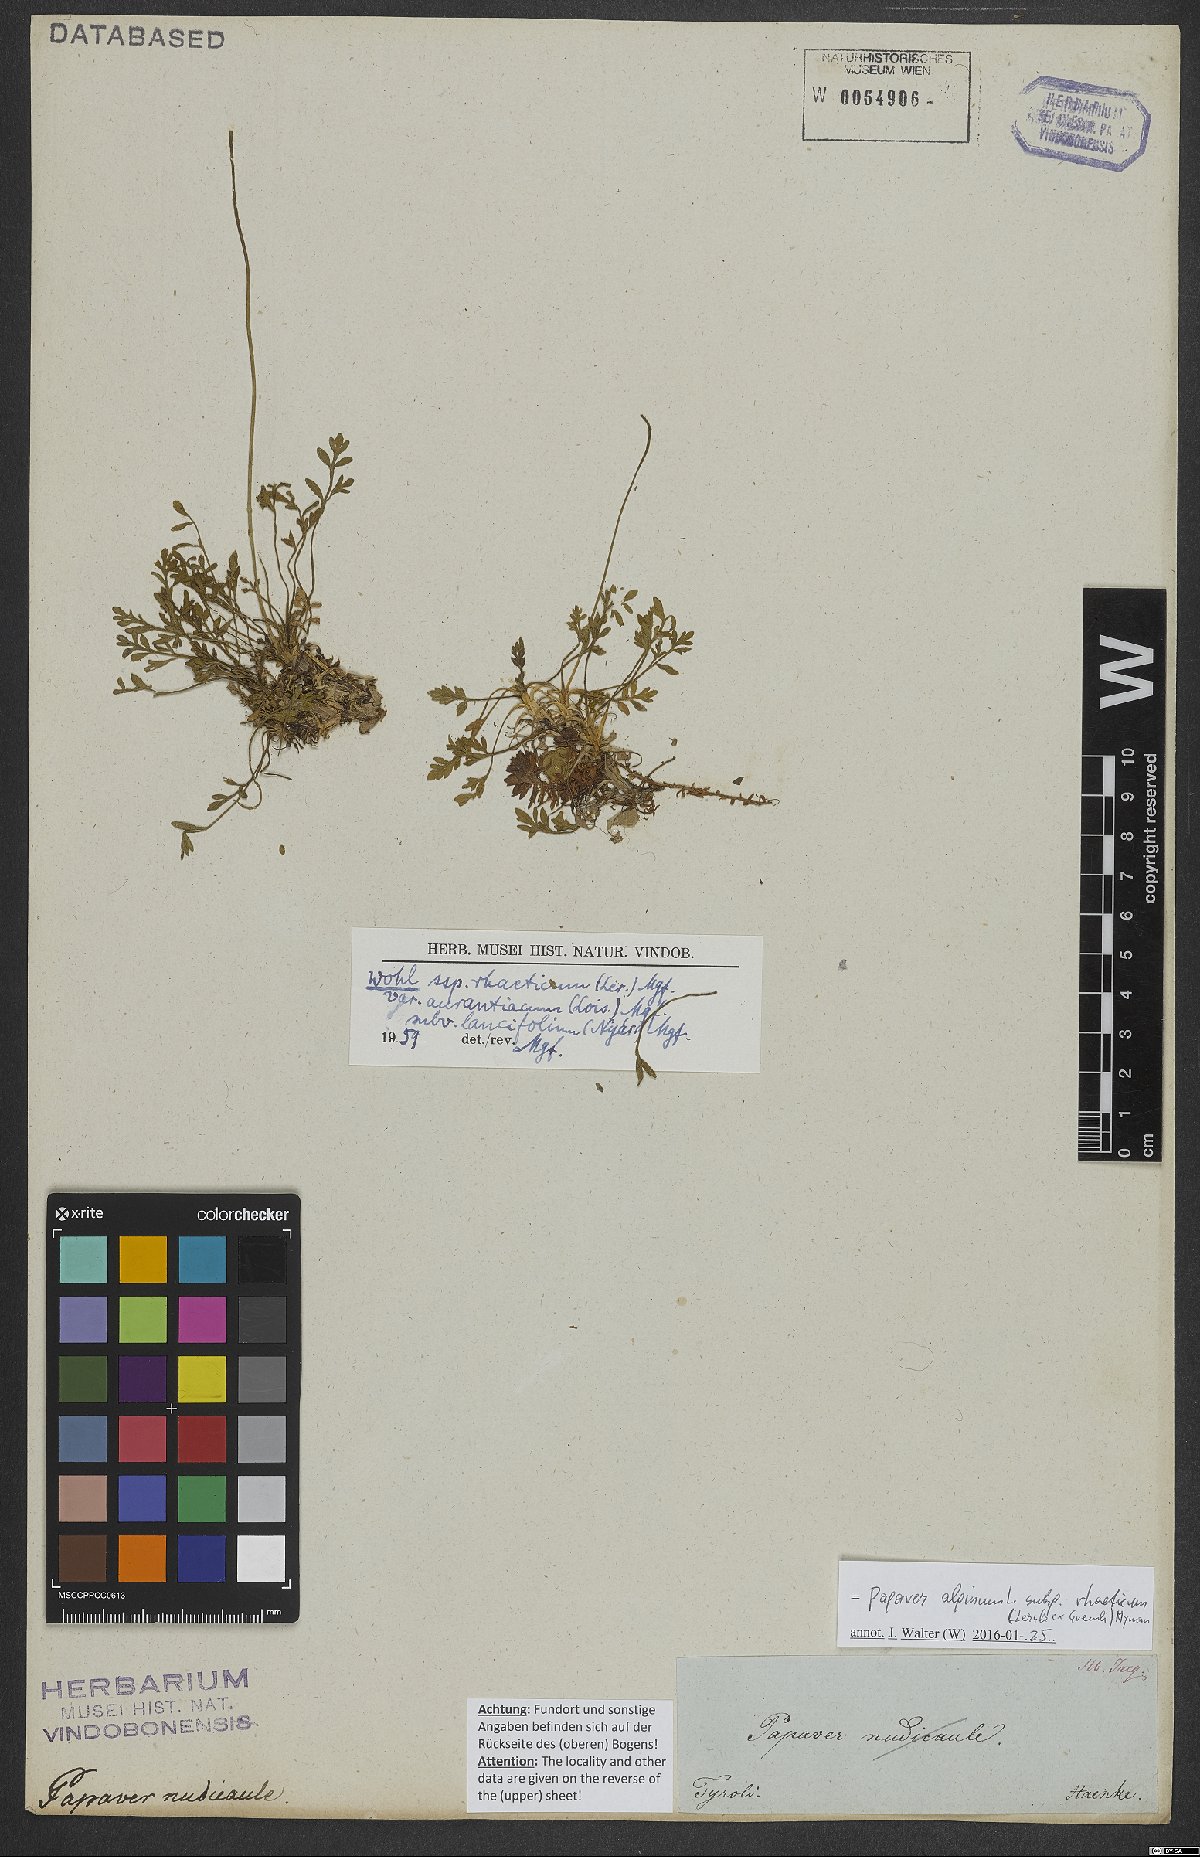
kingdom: Plantae
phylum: Tracheophyta
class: Magnoliopsida
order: Ranunculales
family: Papaveraceae
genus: Papaver
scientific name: Papaver alpinum
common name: Austrian poppy
